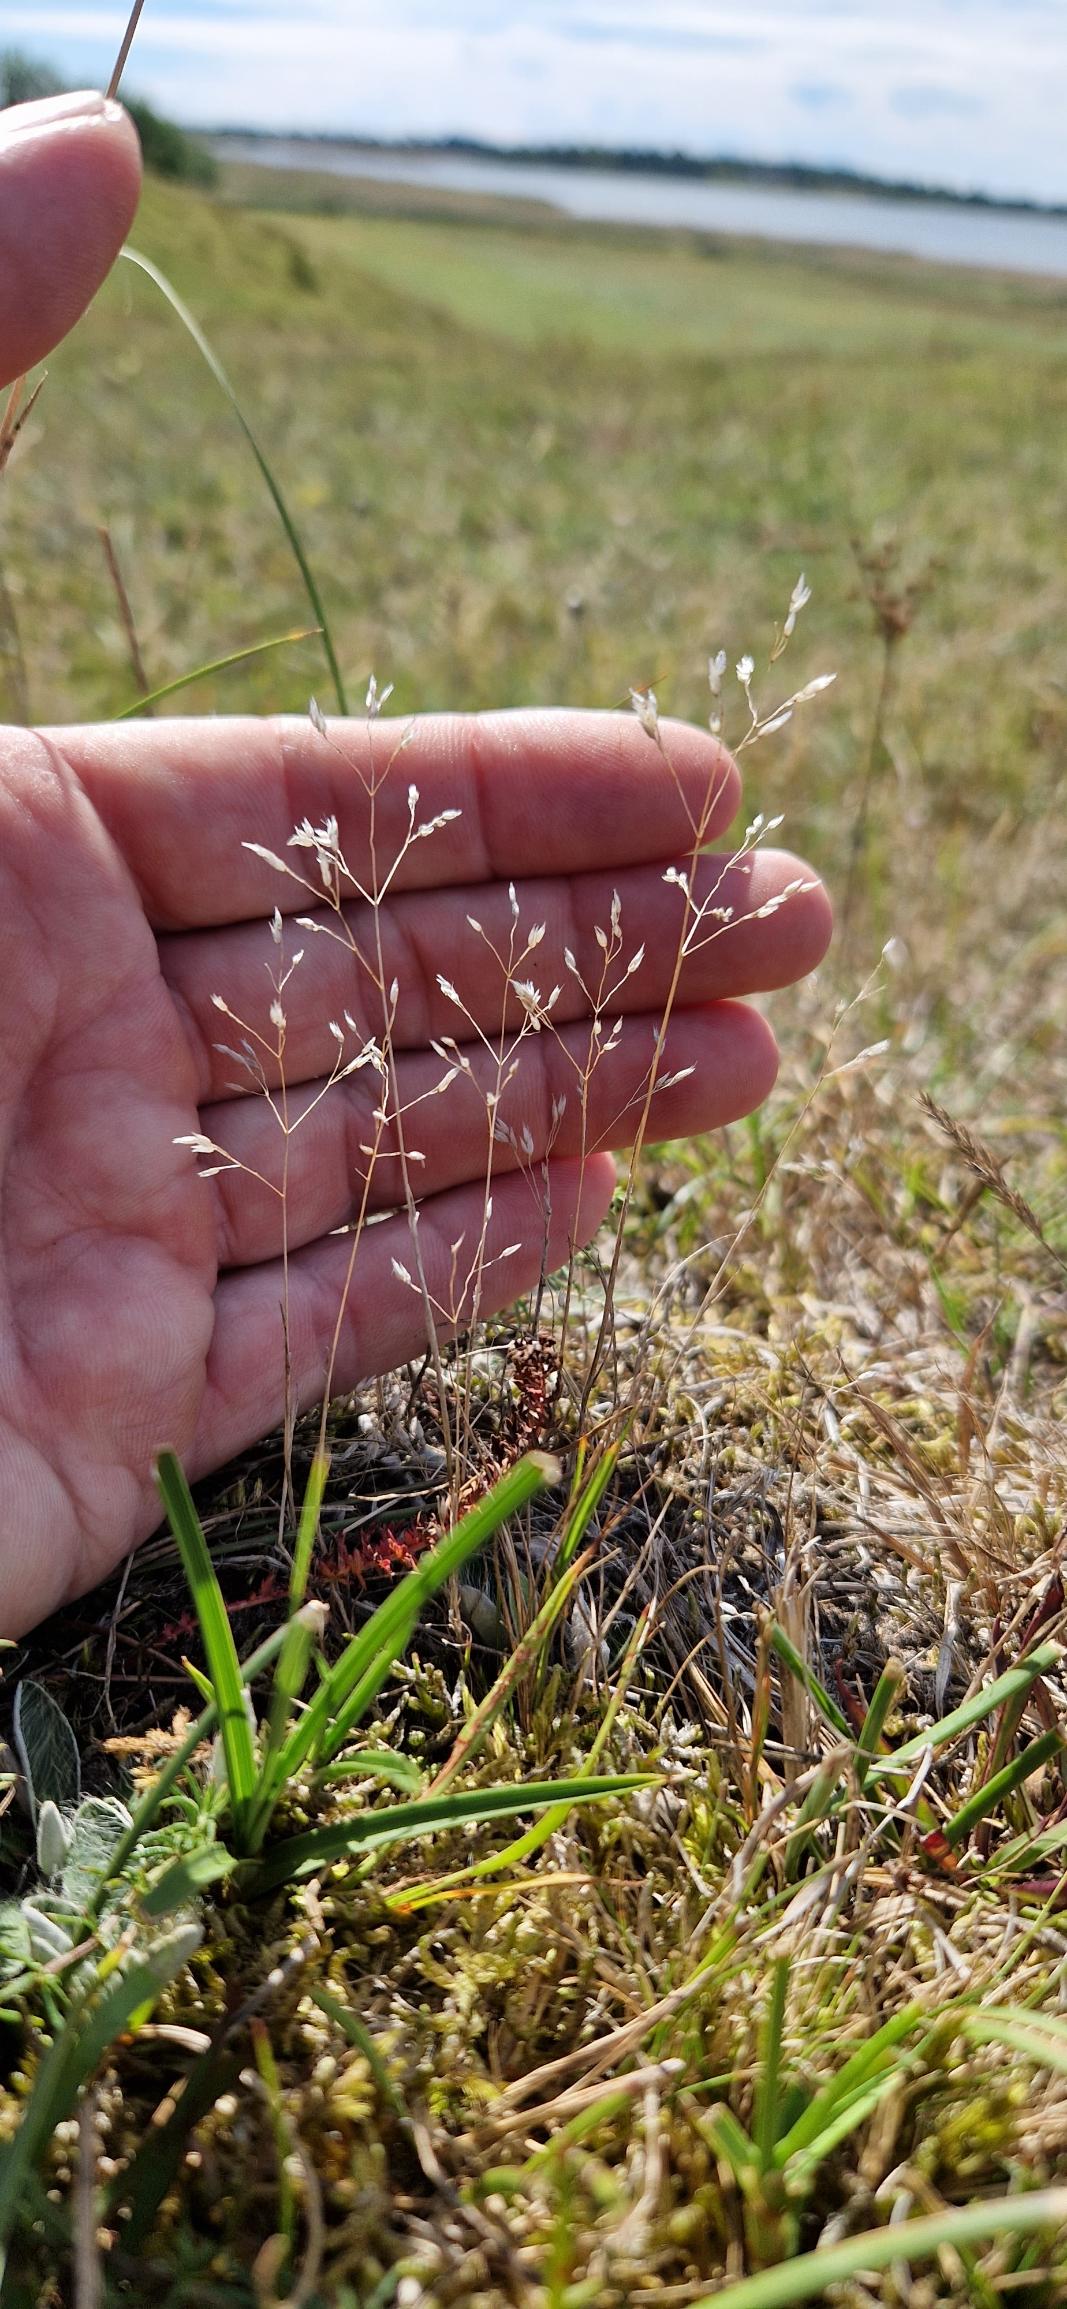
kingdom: Plantae
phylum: Tracheophyta
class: Liliopsida
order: Poales
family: Poaceae
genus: Aira
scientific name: Aira caryophyllea
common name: Udspærret dværgbunke
